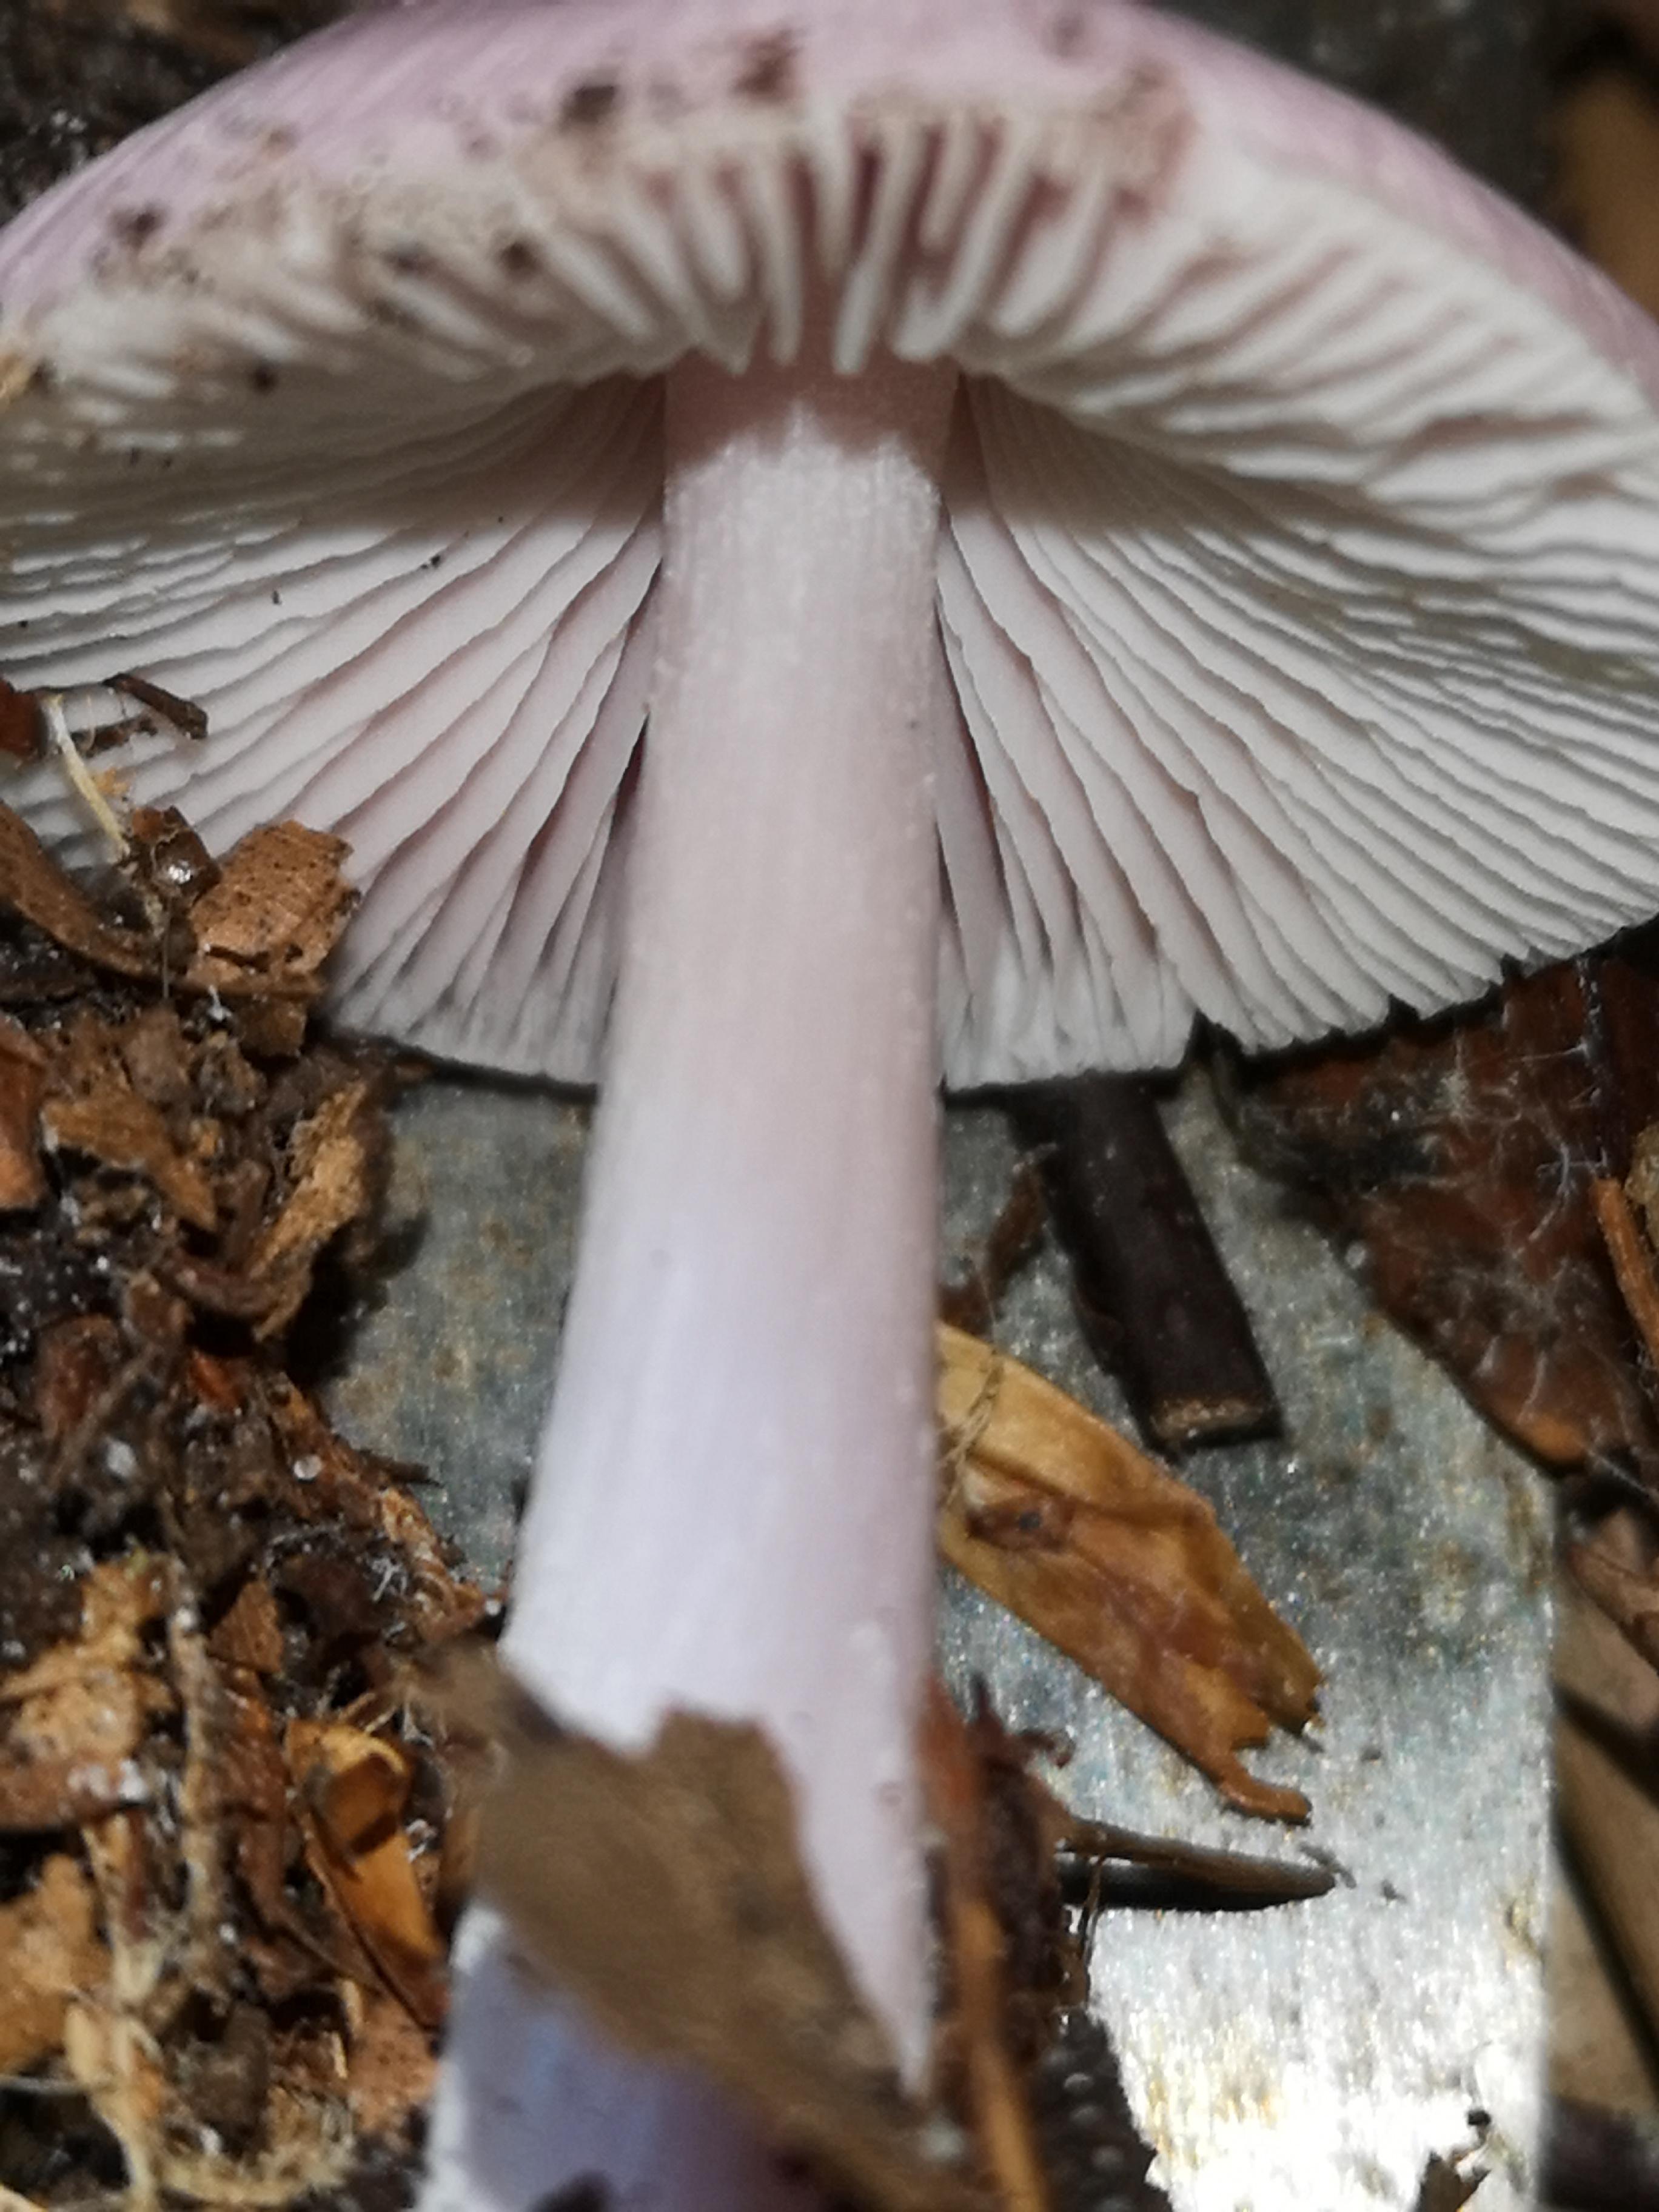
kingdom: Fungi
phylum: Basidiomycota
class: Agaricomycetes
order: Agaricales
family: Mycenaceae
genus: Mycena
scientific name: Mycena rosea
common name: rosa huesvamp
